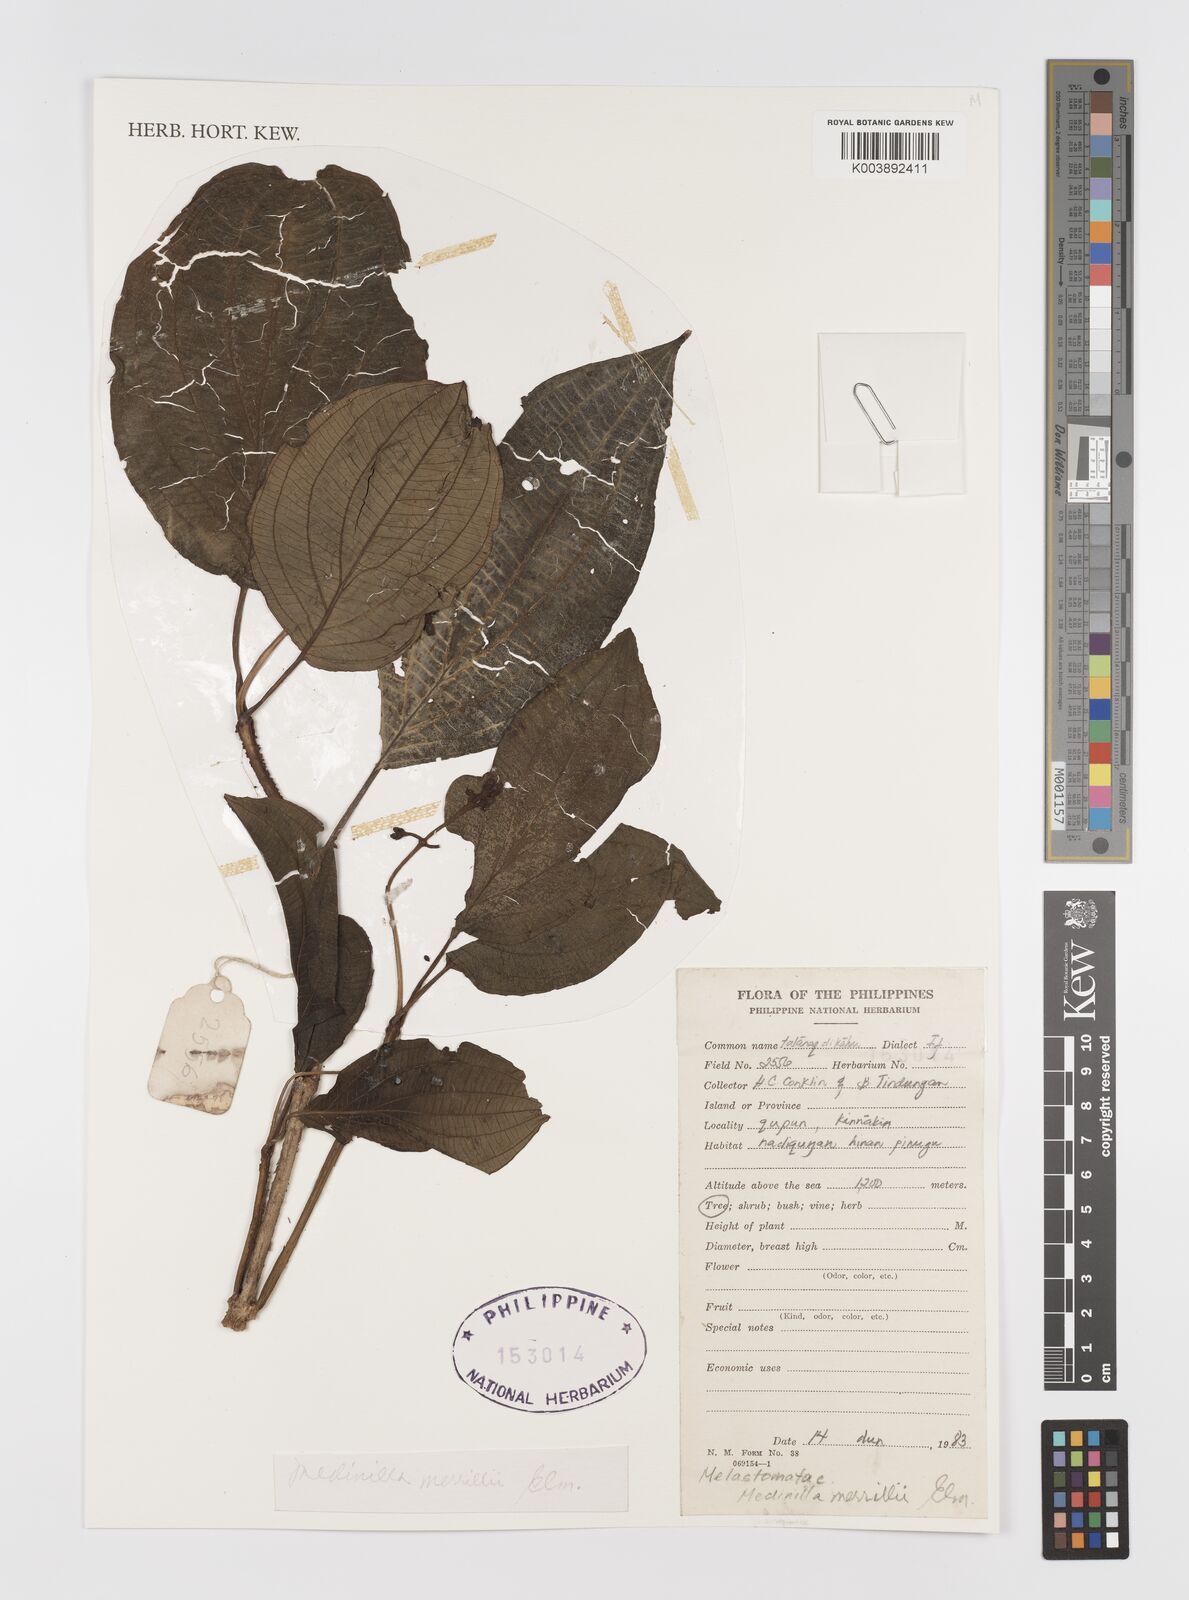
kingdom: Plantae
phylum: Tracheophyta
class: Magnoliopsida
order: Myrtales
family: Melastomataceae
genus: Medinilla
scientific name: Medinilla pendula
